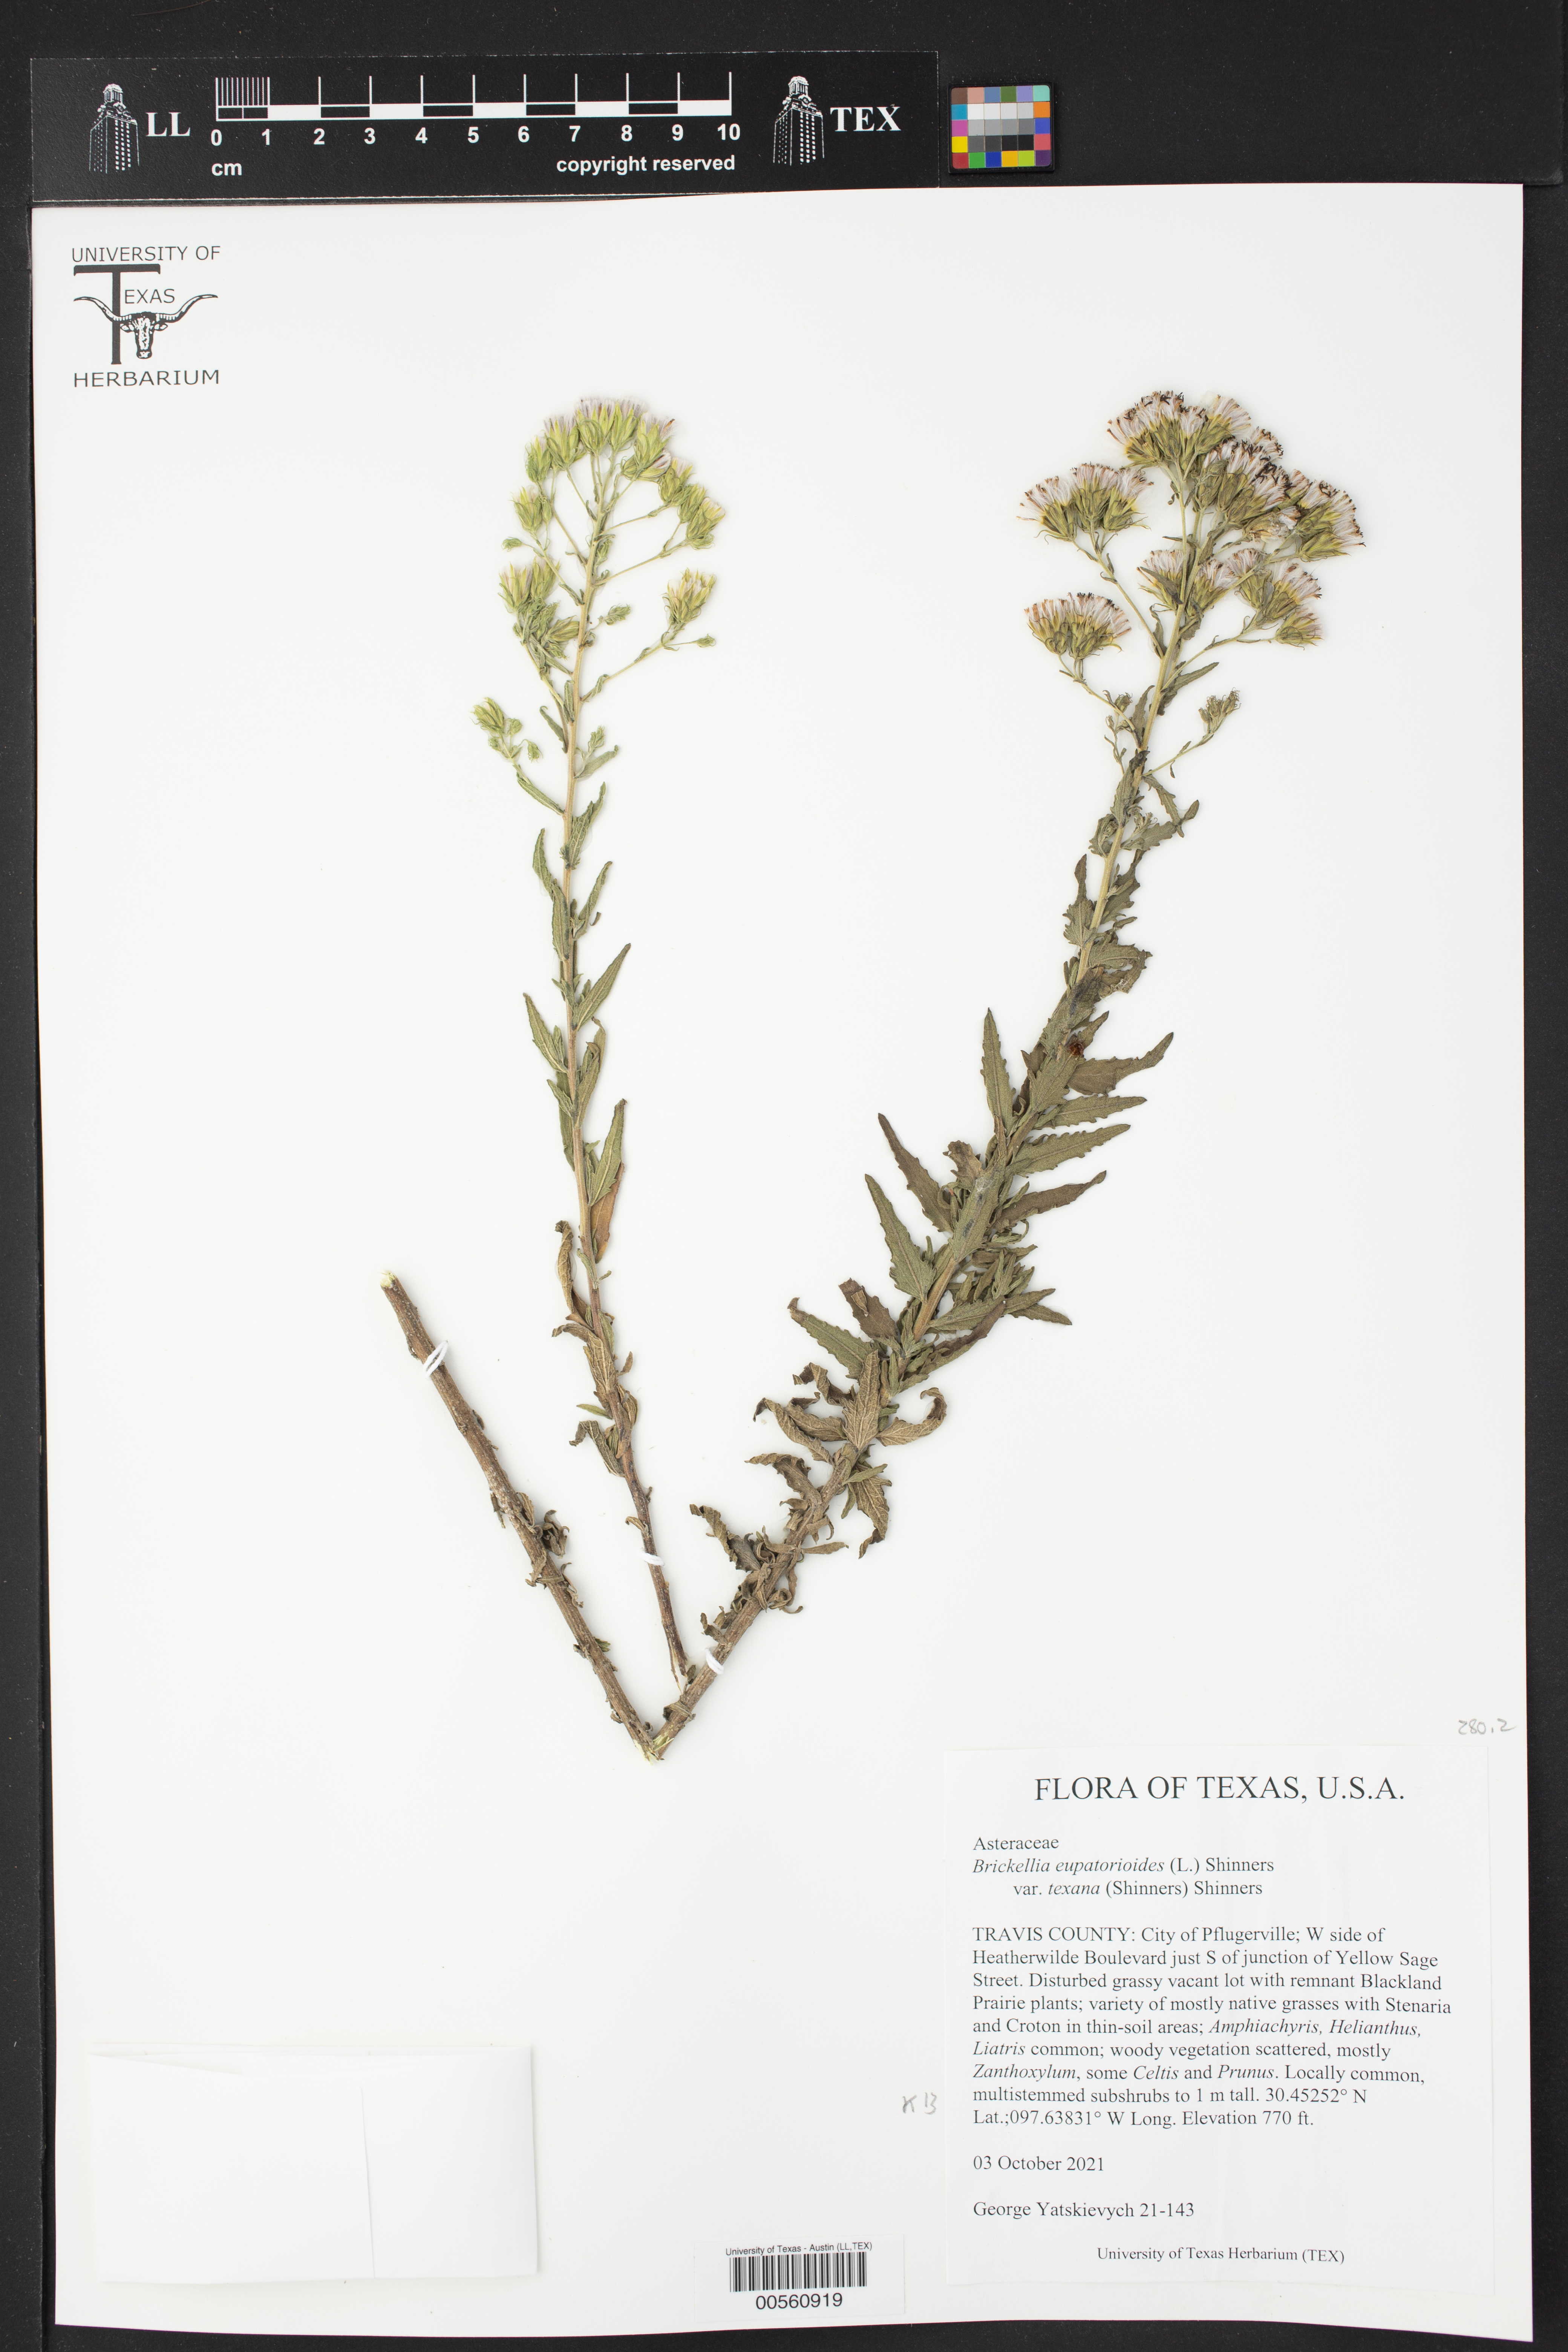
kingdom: Plantae
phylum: Tracheophyta
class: Magnoliopsida
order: Asterales
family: Asteraceae
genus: Brickellia
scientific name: Brickellia macranthra
